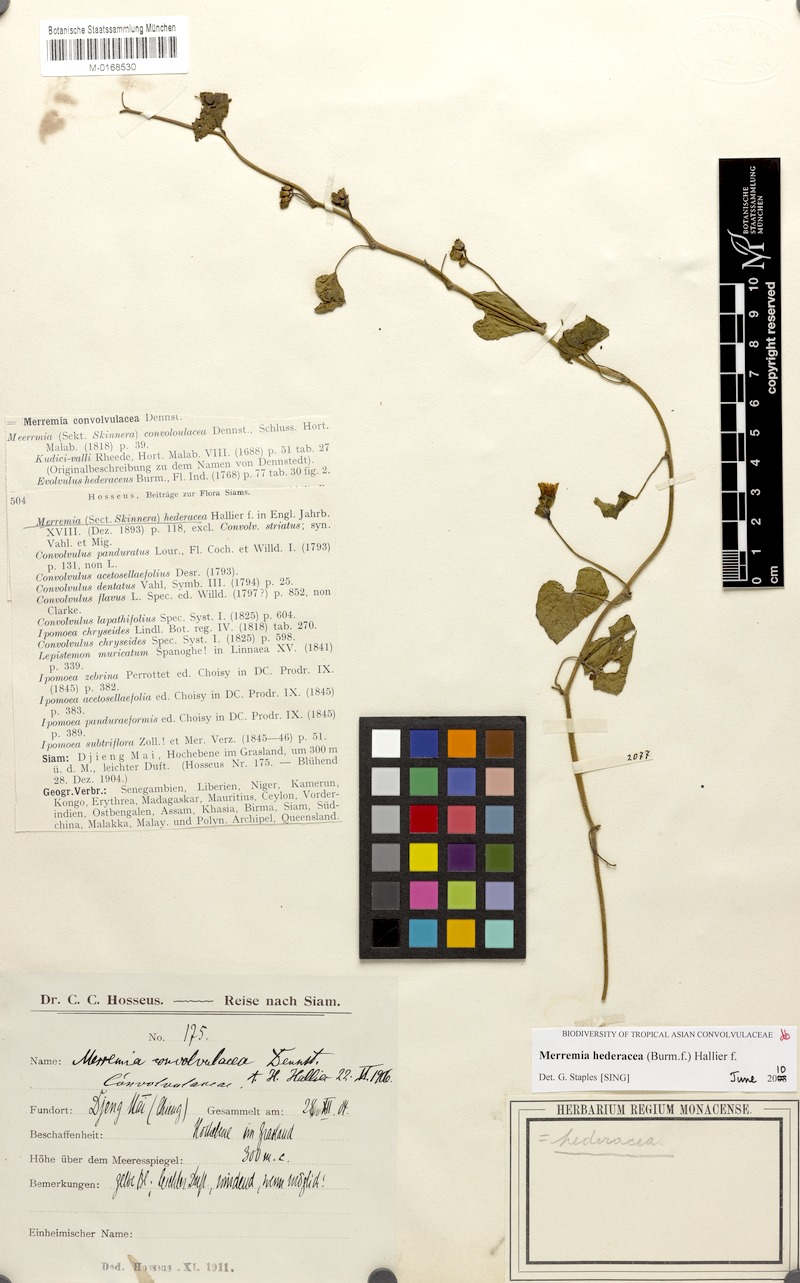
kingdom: Plantae
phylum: Tracheophyta
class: Magnoliopsida
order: Solanales
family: Convolvulaceae
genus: Merremia
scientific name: Merremia hederacea
